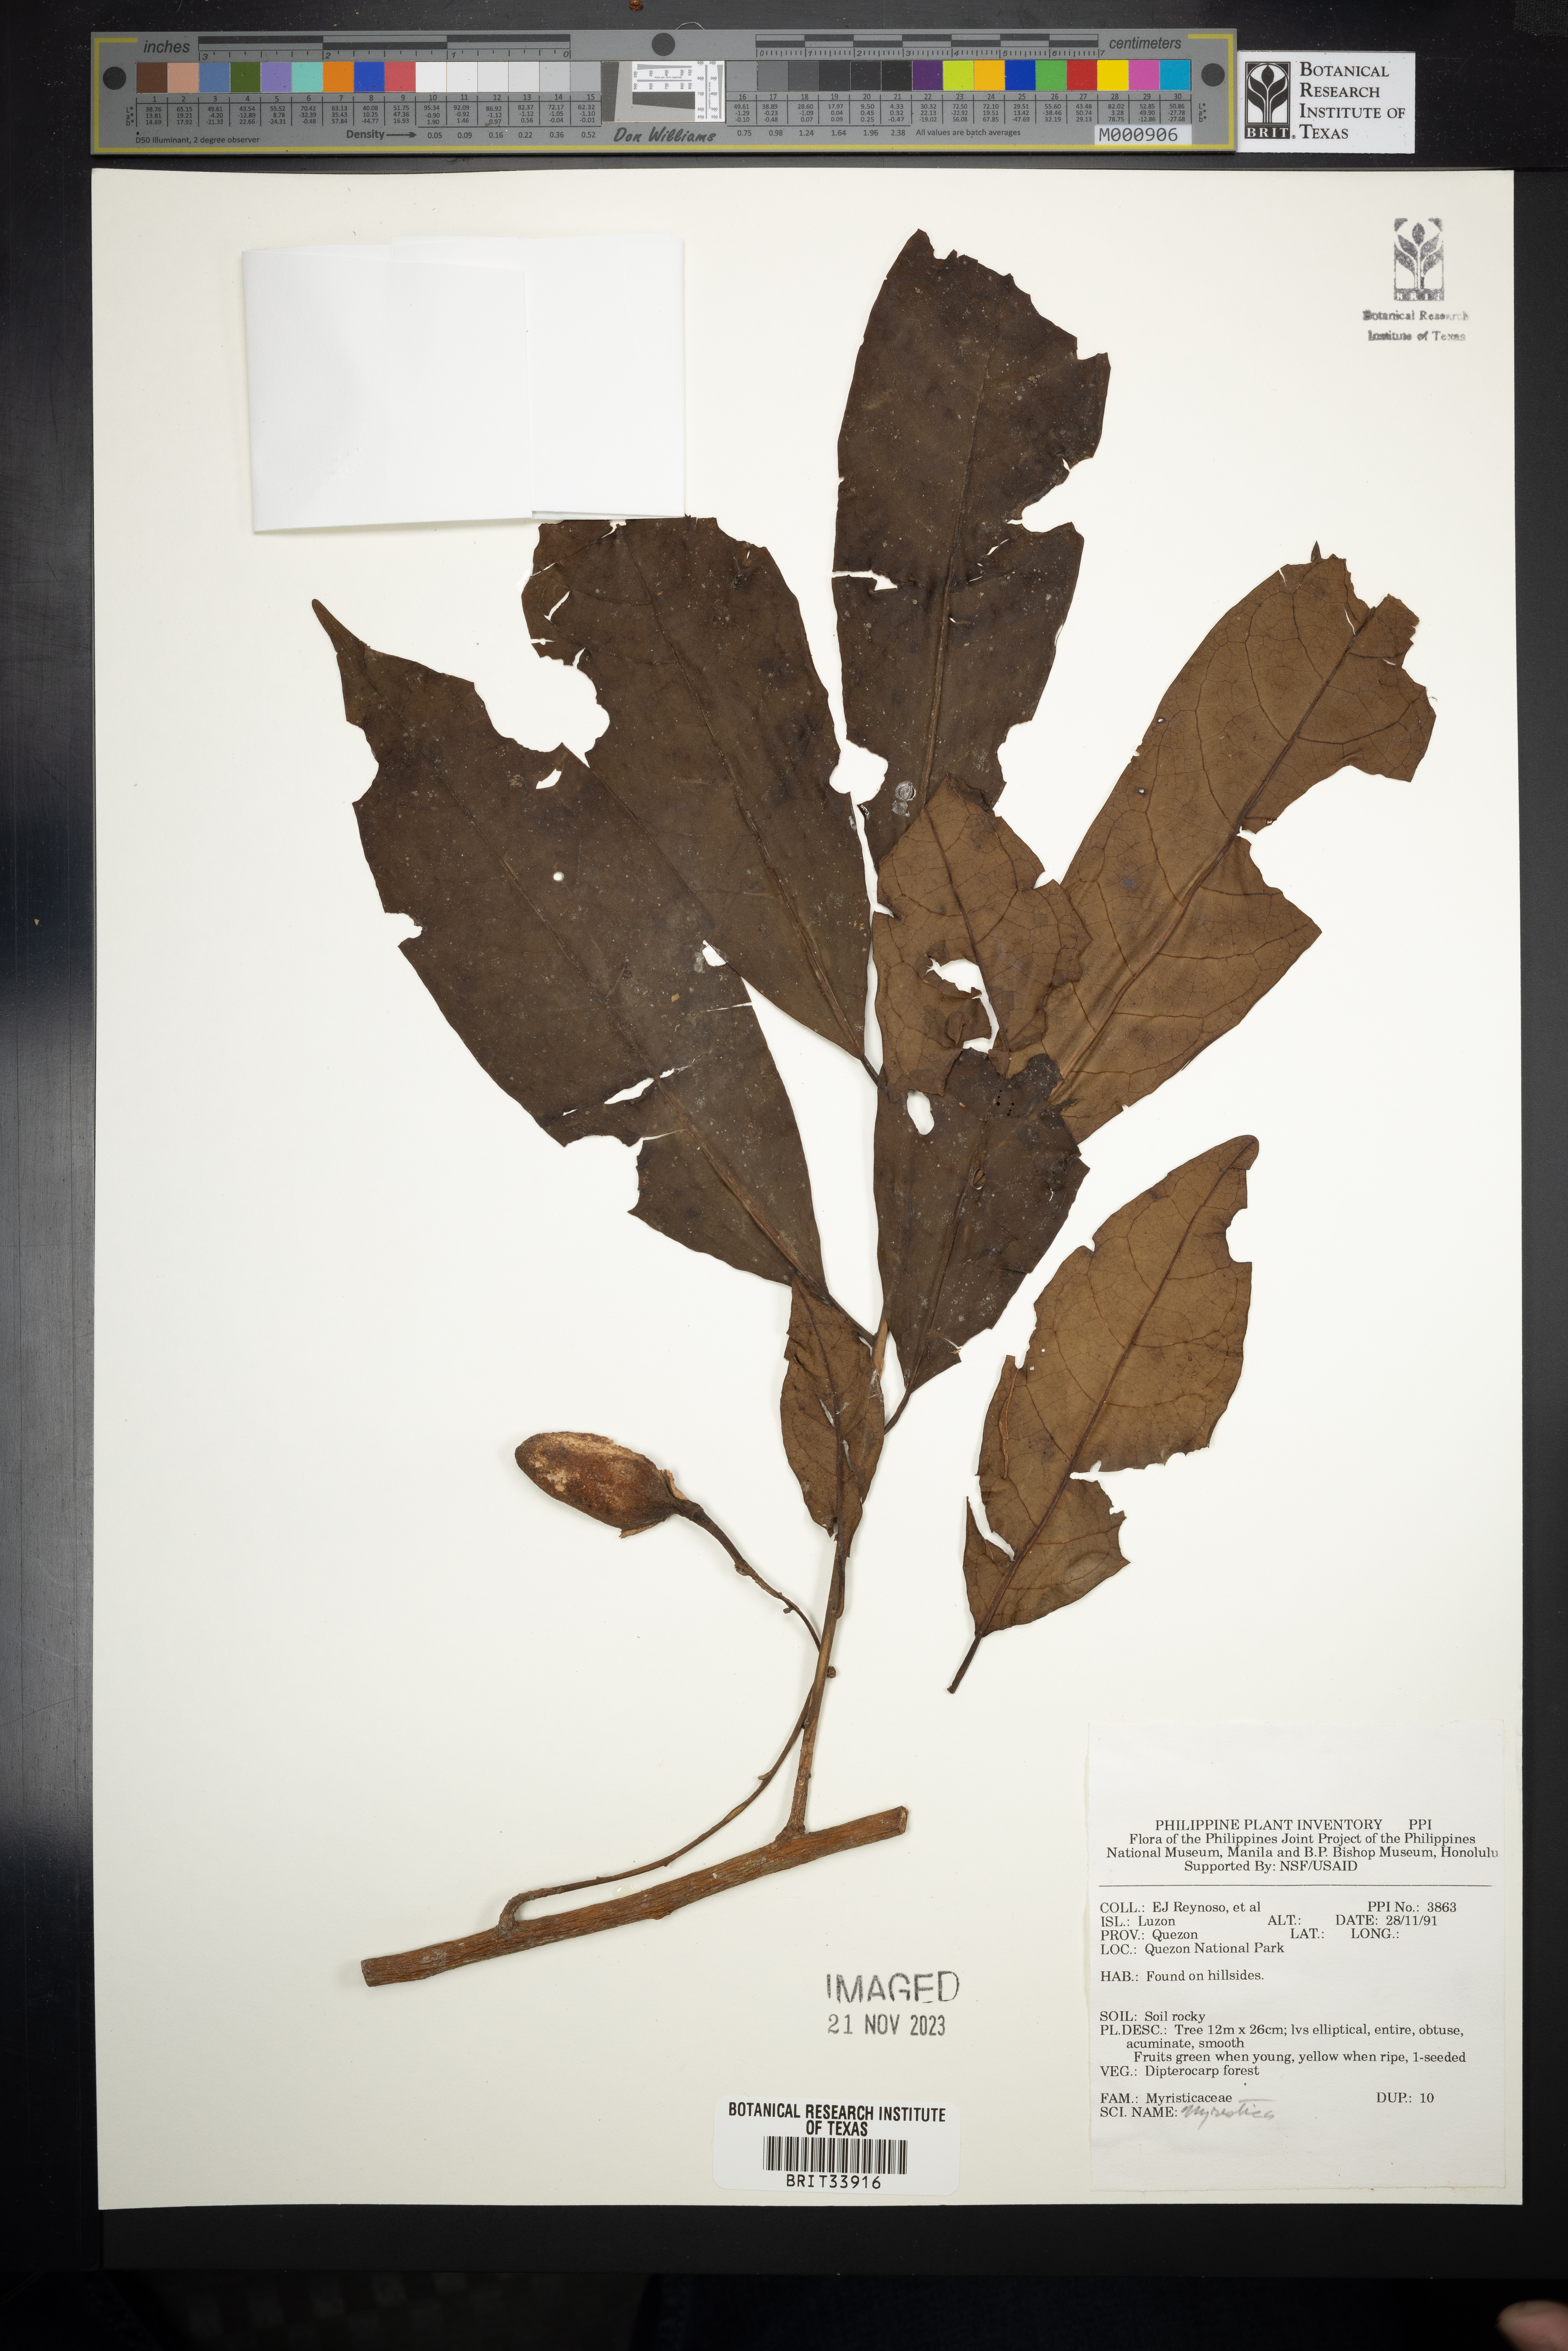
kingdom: Plantae
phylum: Tracheophyta
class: Magnoliopsida
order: Magnoliales
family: Myristicaceae
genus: Myristica
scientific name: Myristica
